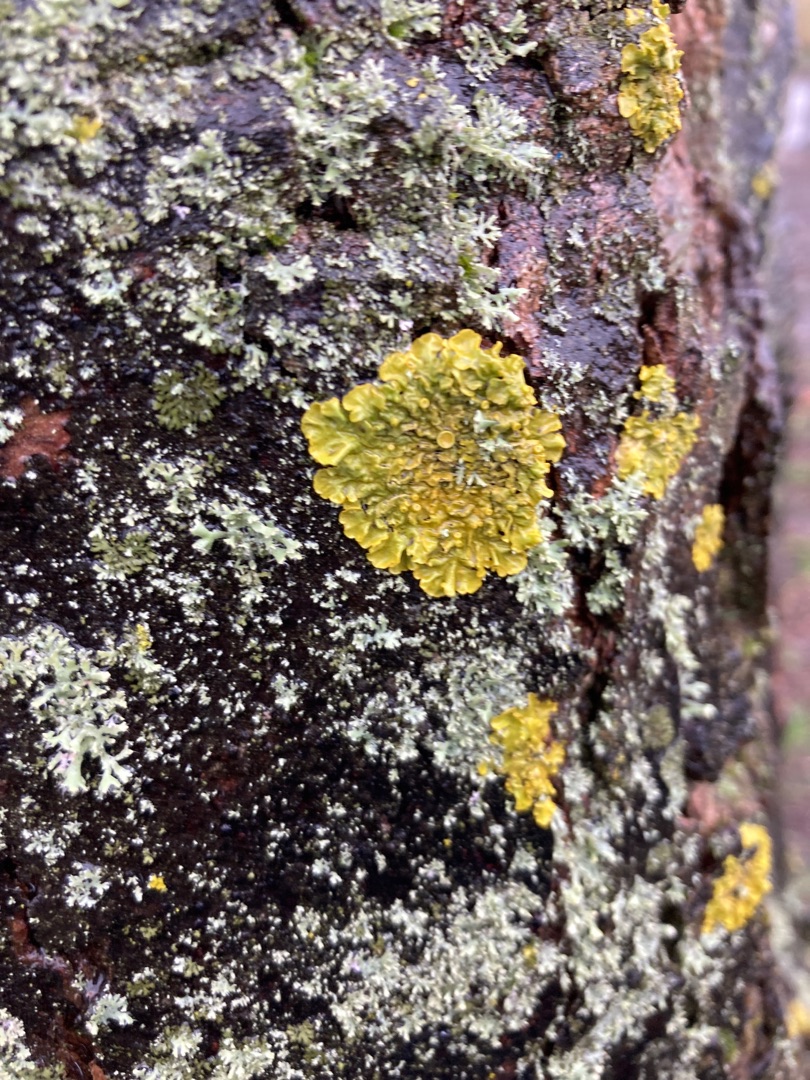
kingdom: Fungi
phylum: Ascomycota
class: Lecanoromycetes
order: Teloschistales
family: Teloschistaceae
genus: Xanthoria
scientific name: Xanthoria parietina
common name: Almindelig væggelav
